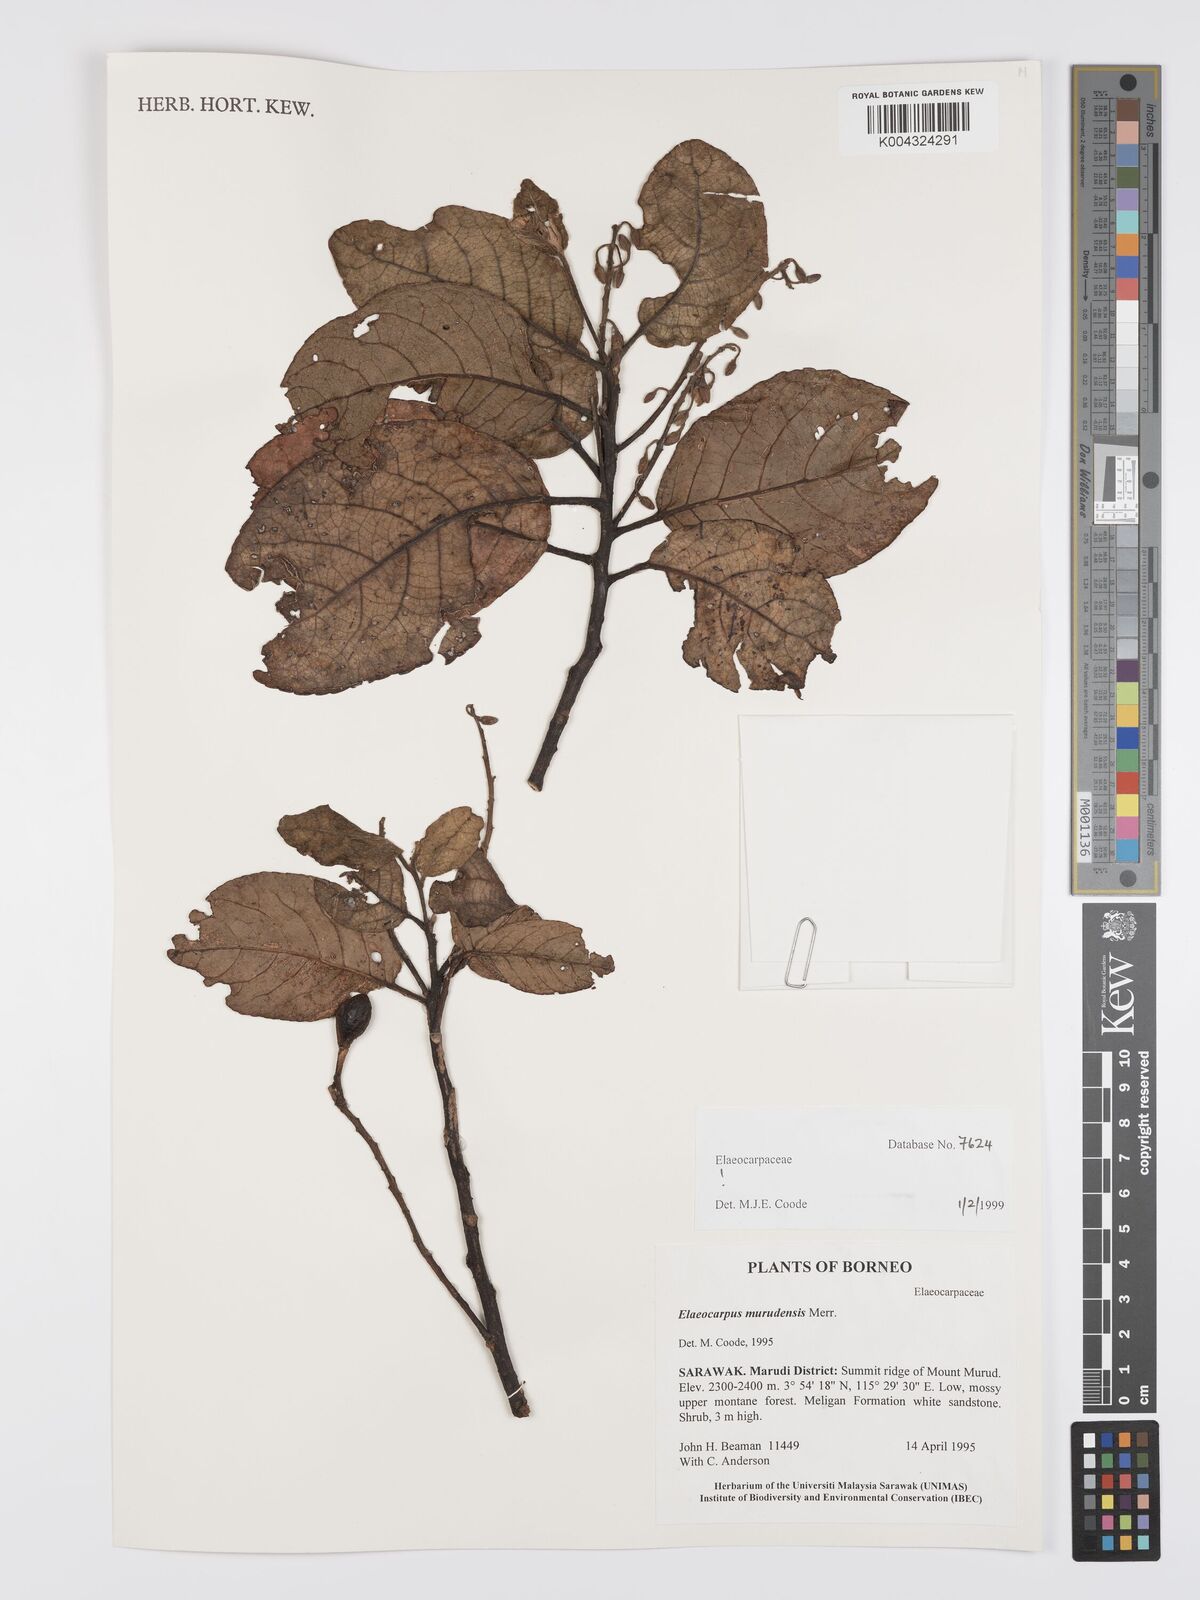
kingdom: Plantae
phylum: Tracheophyta
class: Magnoliopsida
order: Oxalidales
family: Elaeocarpaceae
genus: Elaeocarpus
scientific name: Elaeocarpus murudensis
